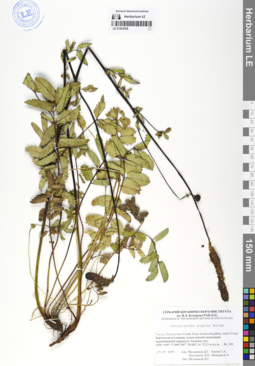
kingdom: Plantae
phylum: Tracheophyta
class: Magnoliopsida
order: Rosales
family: Rosaceae
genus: Sanguisorba
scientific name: Sanguisorba alpina
